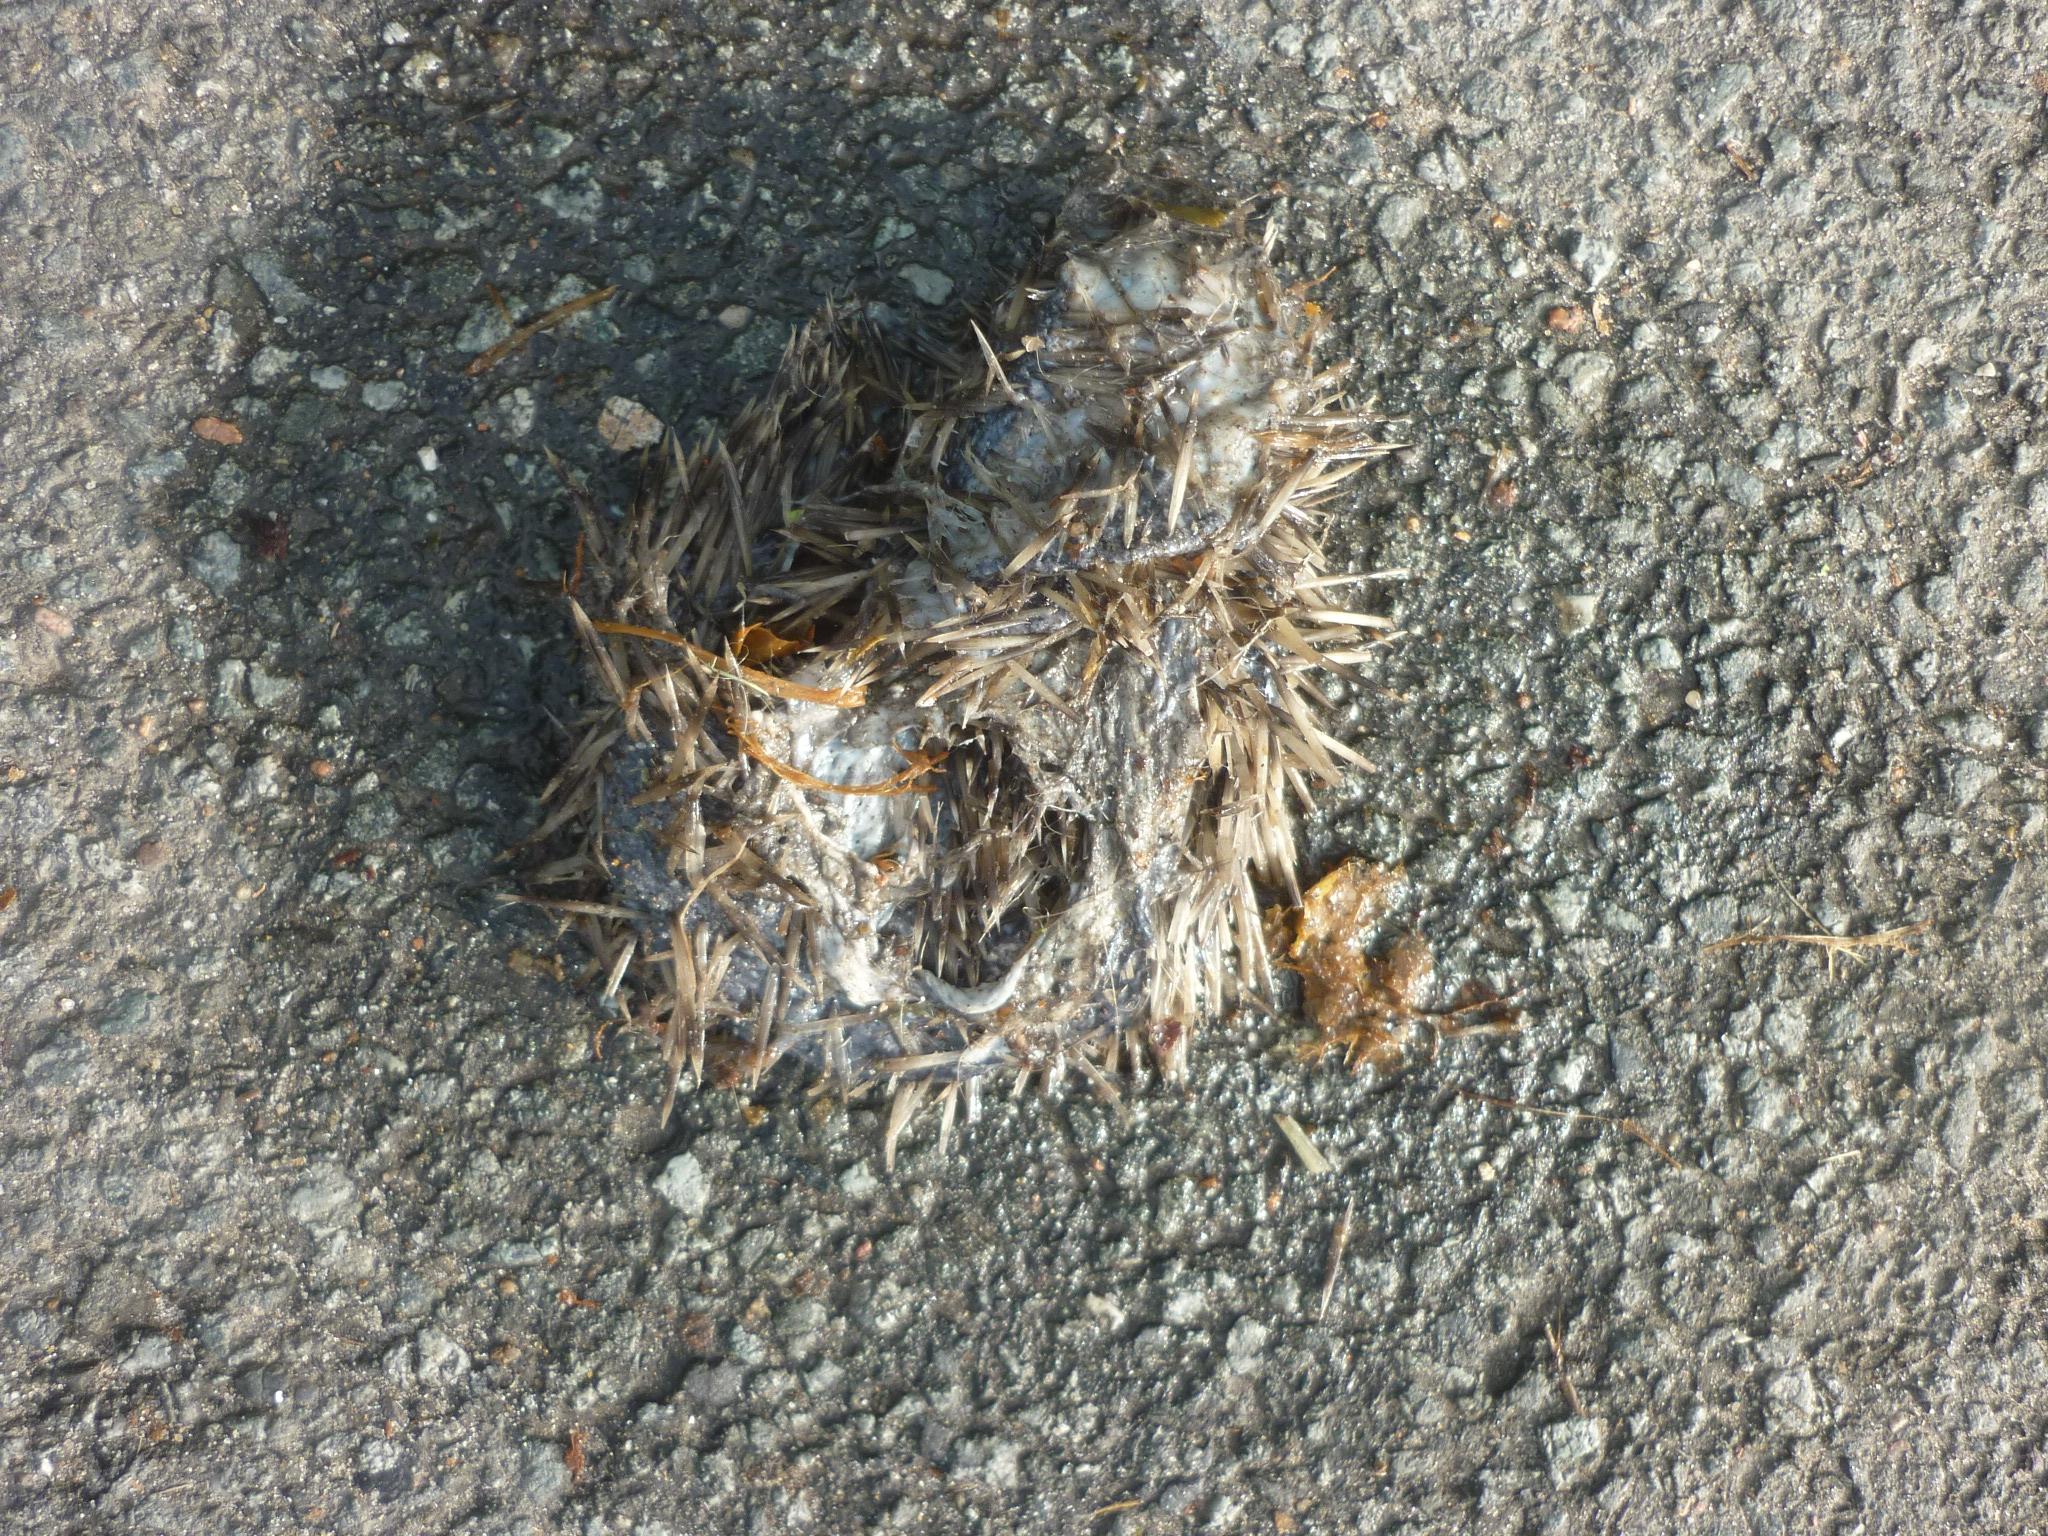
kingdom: Animalia
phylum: Chordata
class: Mammalia
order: Erinaceomorpha
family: Erinaceidae
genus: Erinaceus
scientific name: Erinaceus
